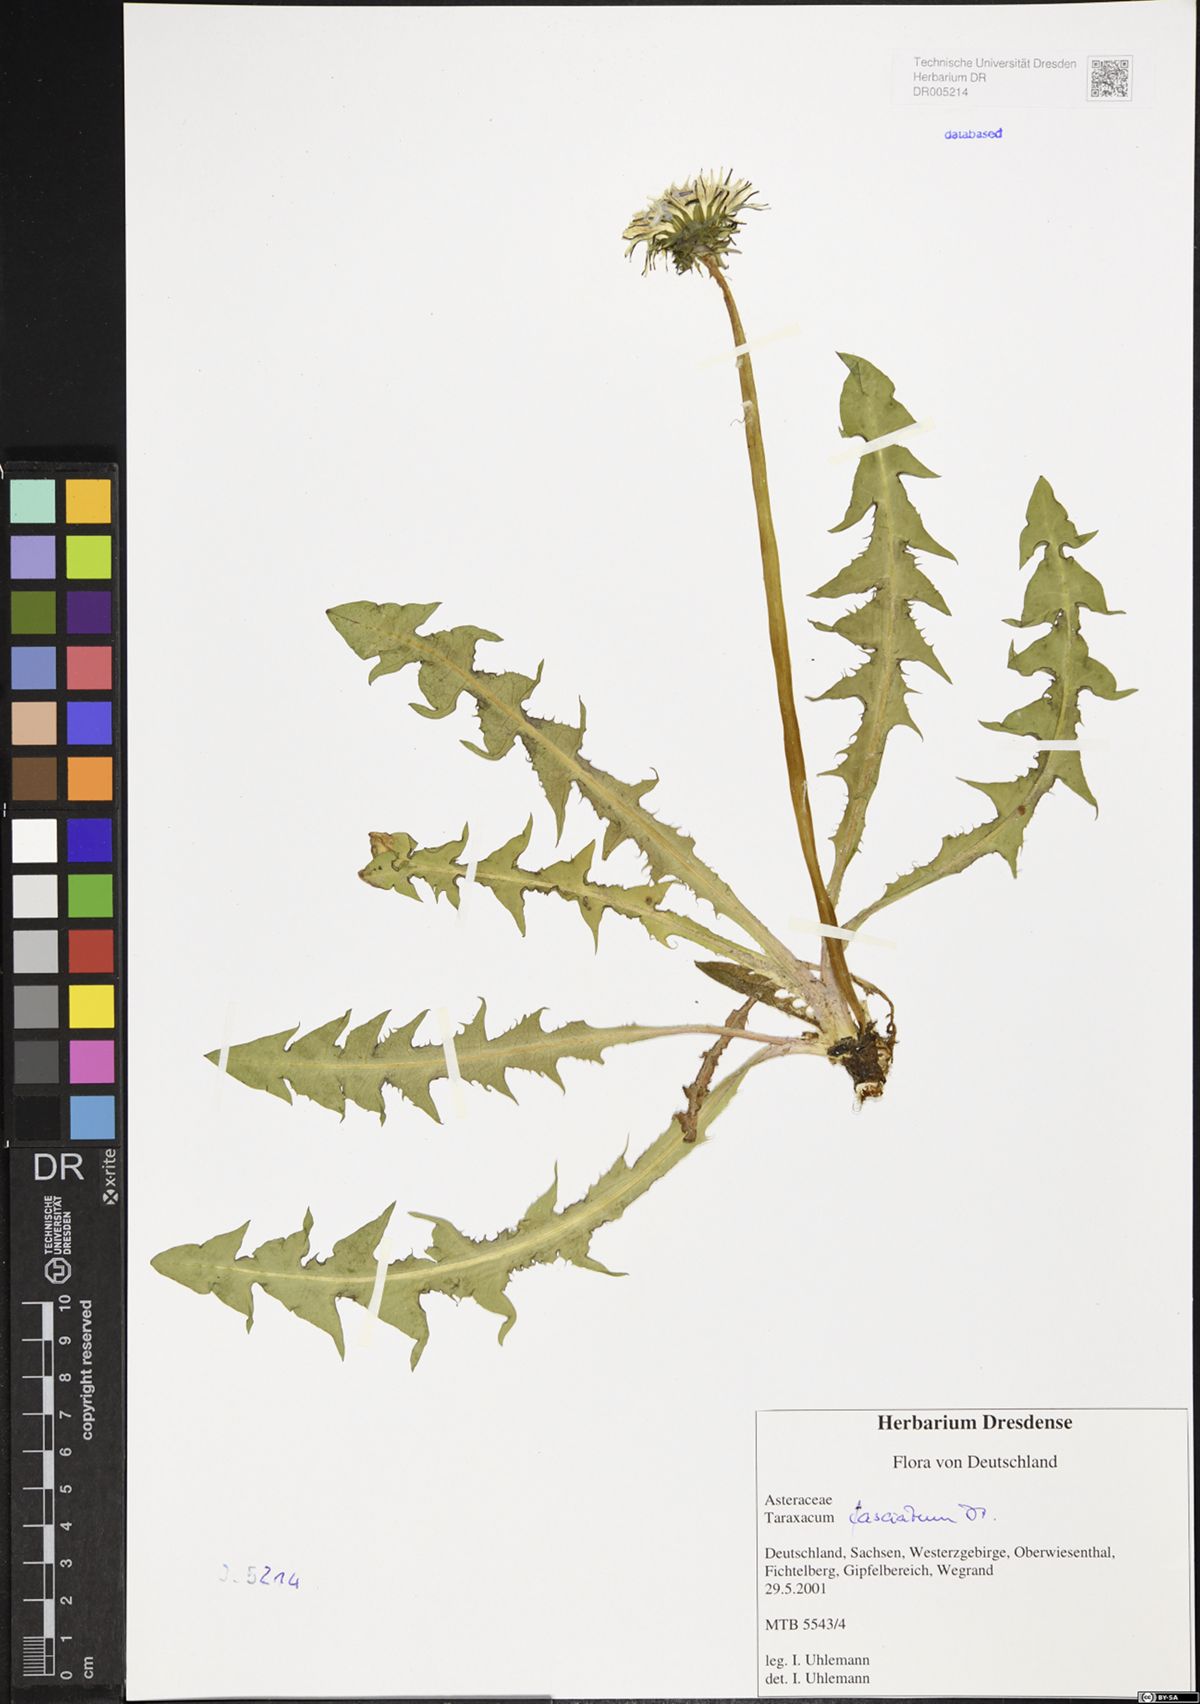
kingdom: Plantae
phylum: Tracheophyta
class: Magnoliopsida
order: Asterales
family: Asteraceae
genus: Taraxacum
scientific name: Taraxacum fasciatum
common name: Dense-bracted dandelion
